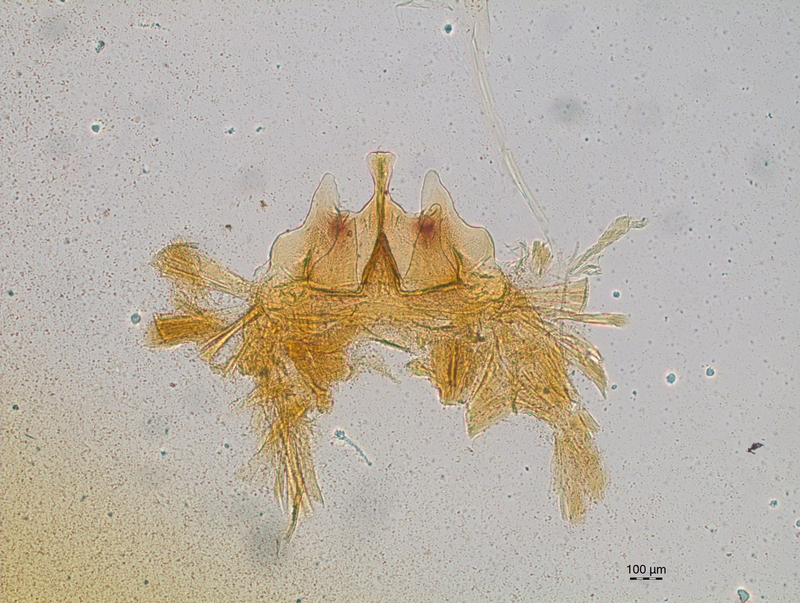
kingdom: Animalia
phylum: Arthropoda
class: Diplopoda
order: Chordeumatida
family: Craspedosomatidae
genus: Craspedosoma
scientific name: Craspedosoma alemannicum
